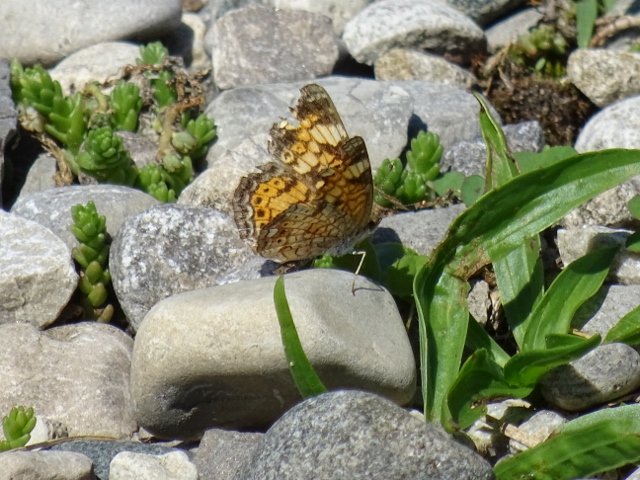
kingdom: Animalia
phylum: Arthropoda
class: Insecta
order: Lepidoptera
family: Nymphalidae
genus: Phyciodes
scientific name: Phyciodes tharos
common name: Northern Crescent
